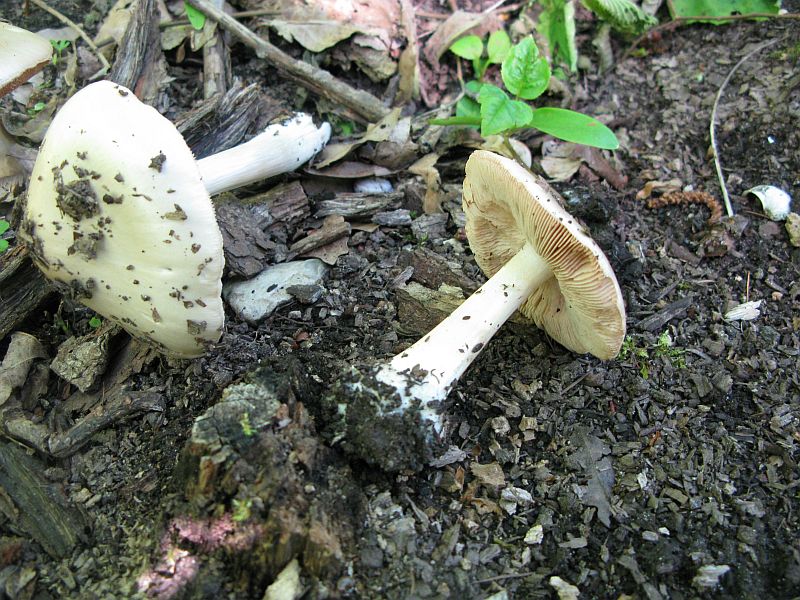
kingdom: Fungi
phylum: Basidiomycota
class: Agaricomycetes
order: Agaricales
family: Pluteaceae
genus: Volvopluteus
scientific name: Volvopluteus gloiocephalus
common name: høj posesvamp
